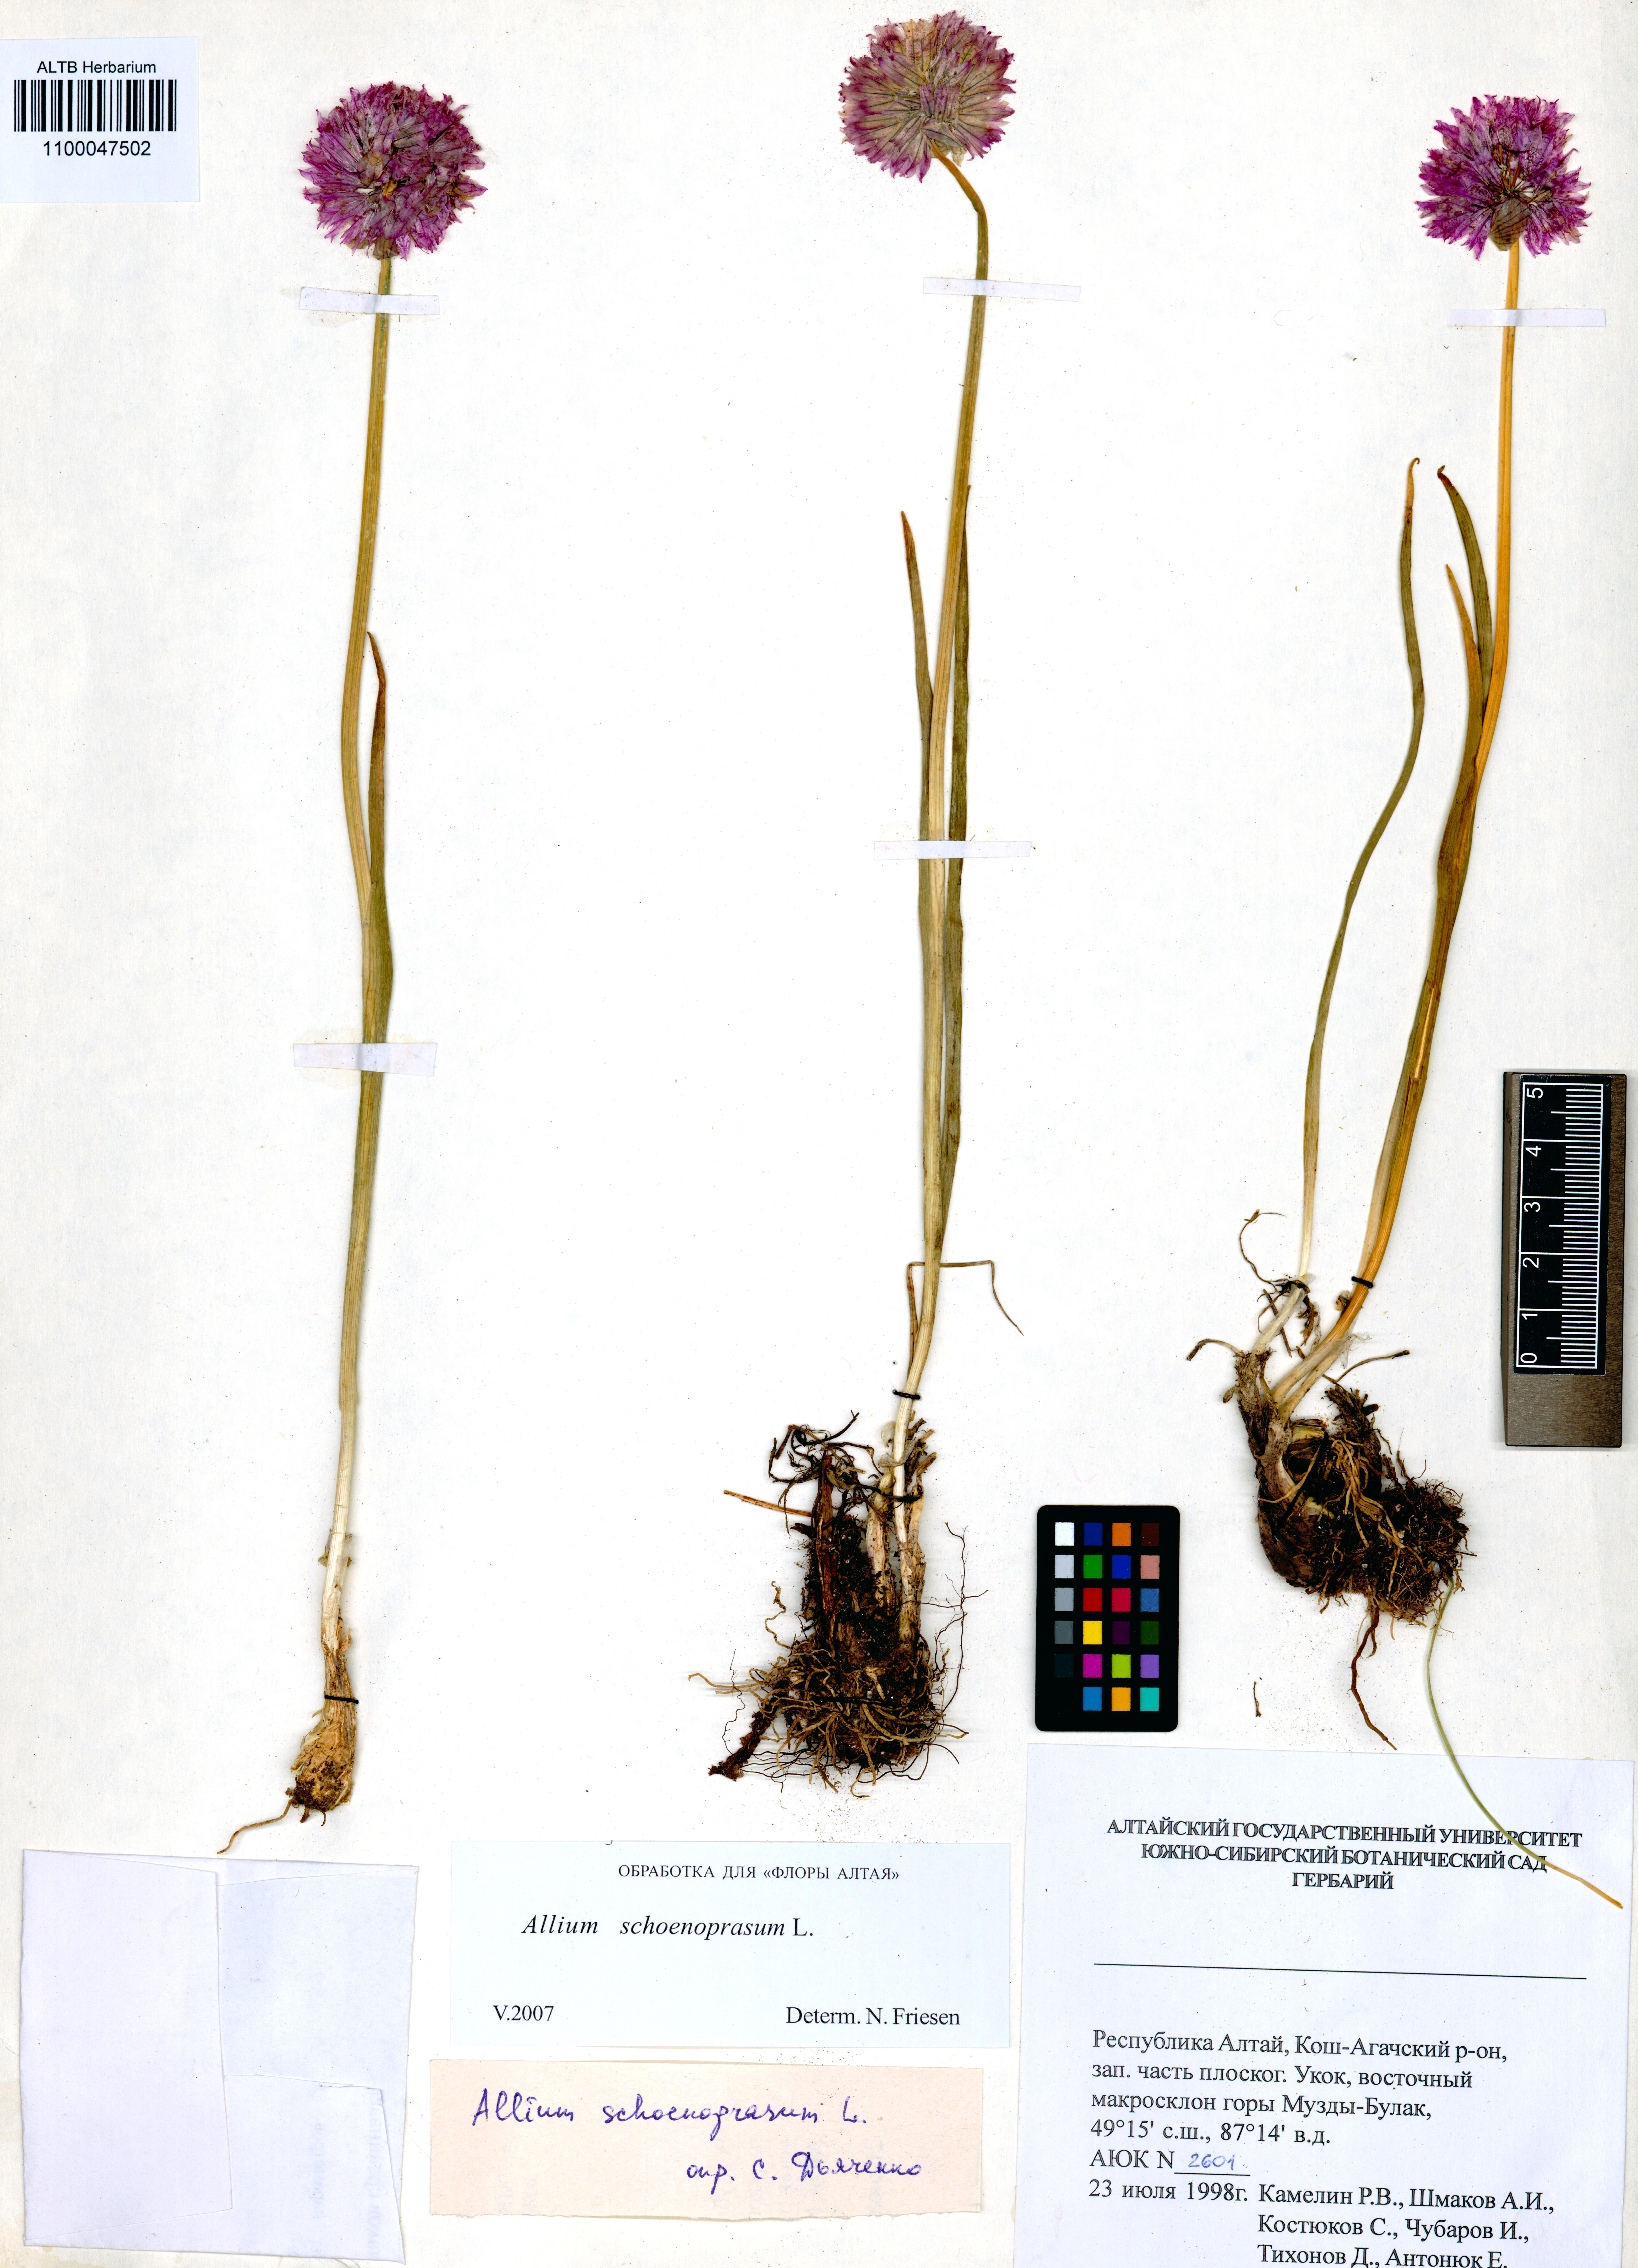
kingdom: Plantae
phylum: Tracheophyta
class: Liliopsida
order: Asparagales
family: Amaryllidaceae
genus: Allium
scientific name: Allium schoenoprasum
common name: Chives
